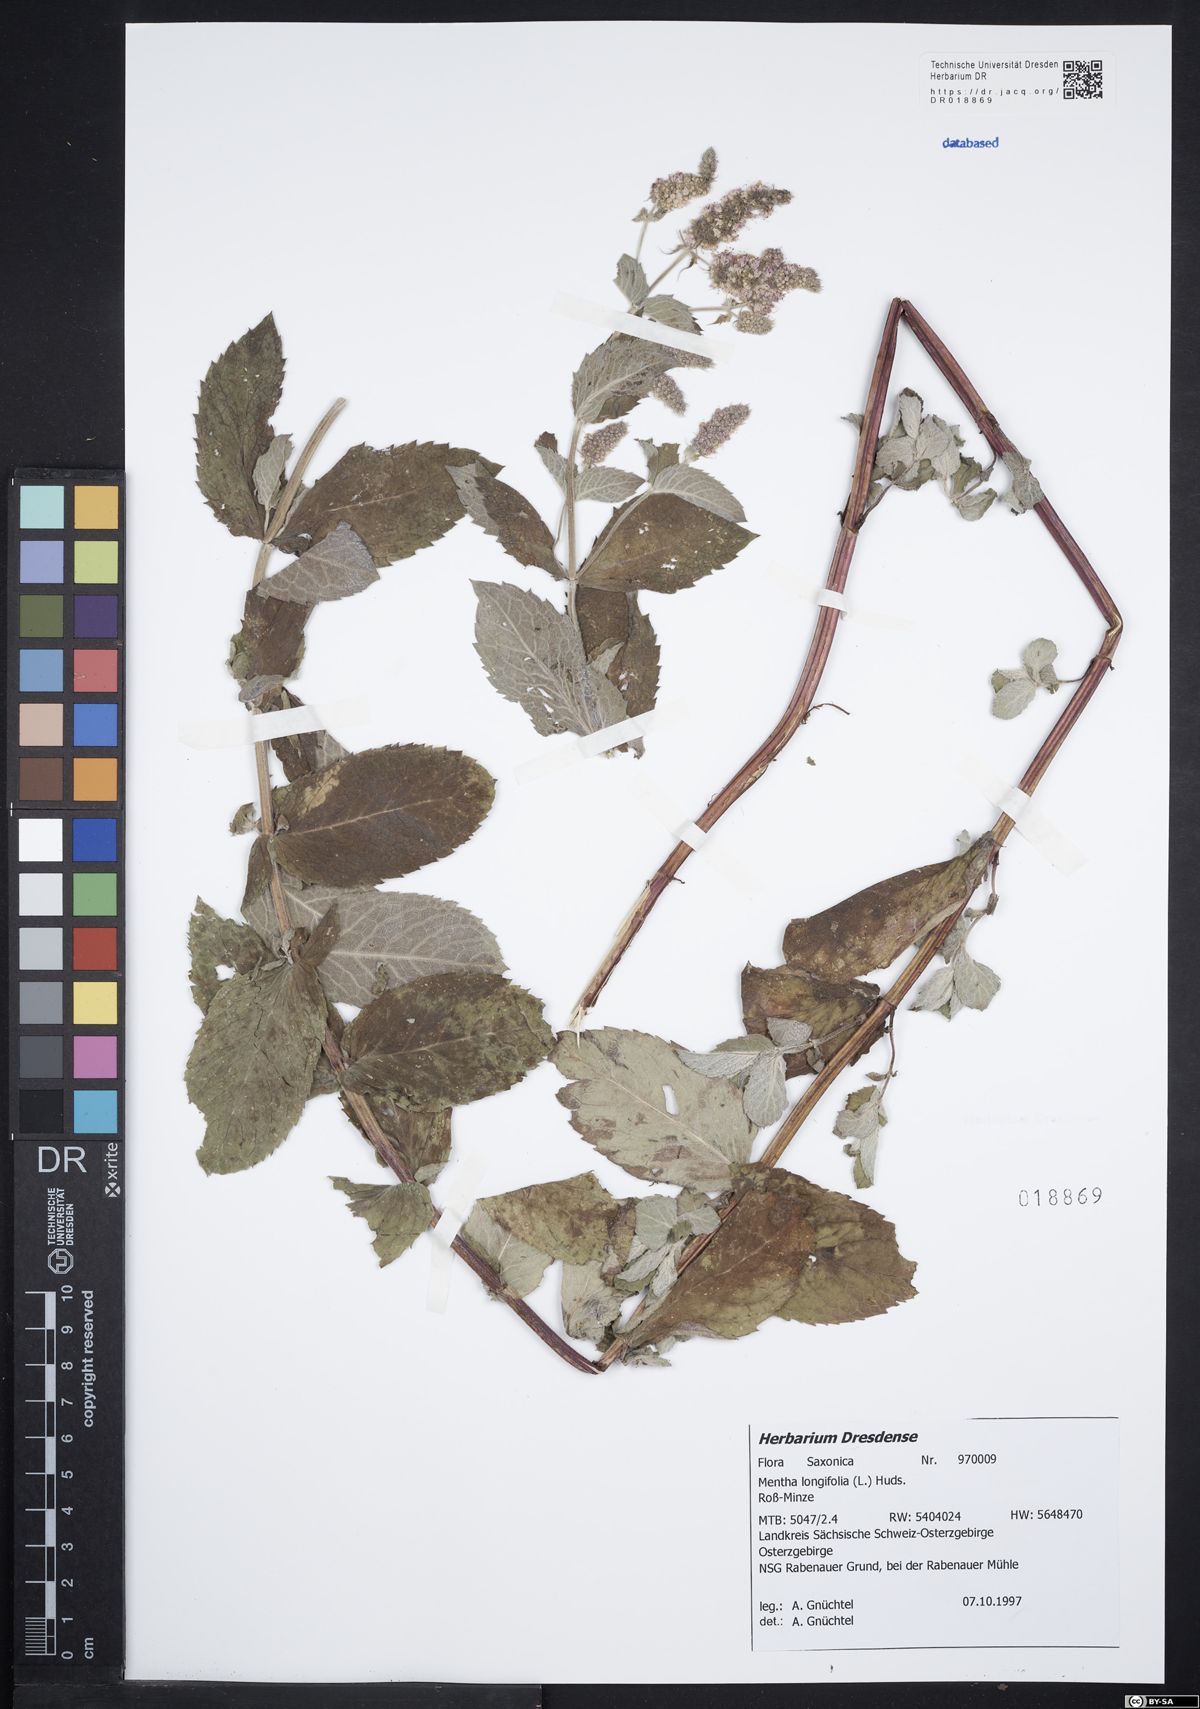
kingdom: Plantae
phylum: Tracheophyta
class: Magnoliopsida
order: Lamiales
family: Lamiaceae
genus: Mentha
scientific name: Mentha longifolia
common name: Horse mint
